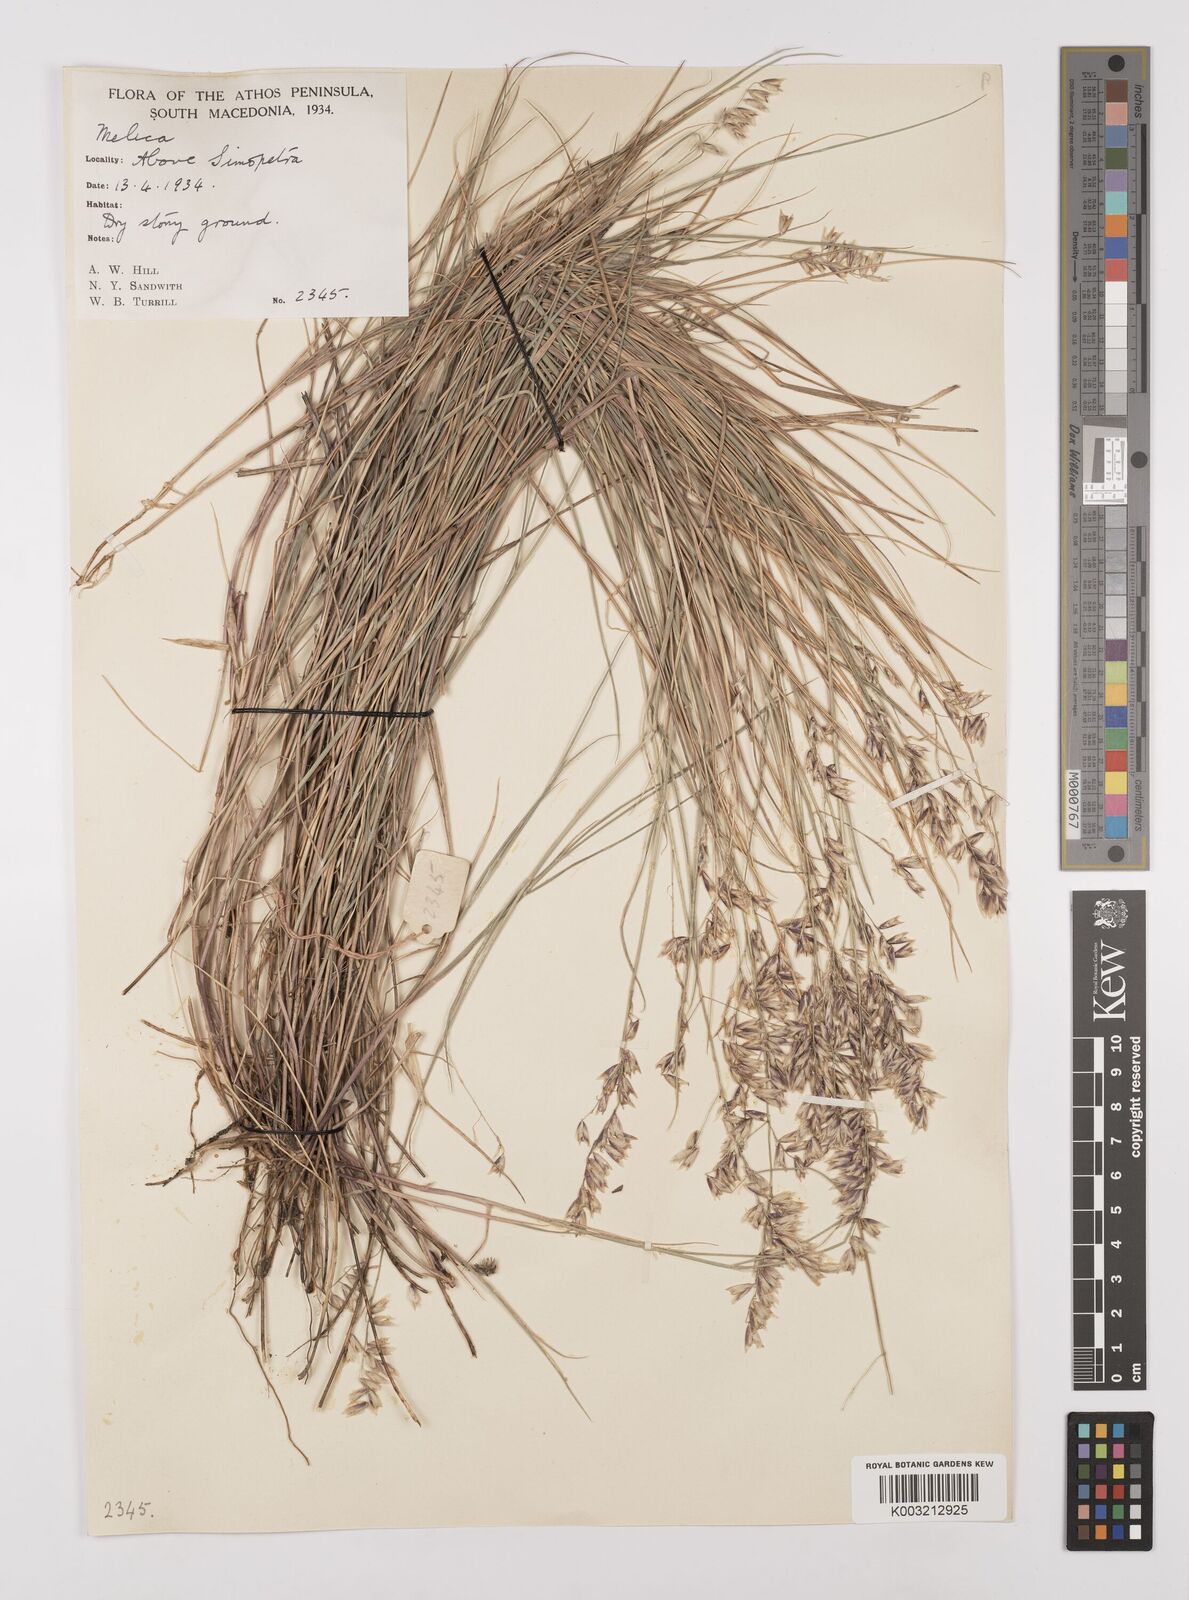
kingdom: Plantae
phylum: Tracheophyta
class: Liliopsida
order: Poales
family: Poaceae
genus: Melica
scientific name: Melica minuta
